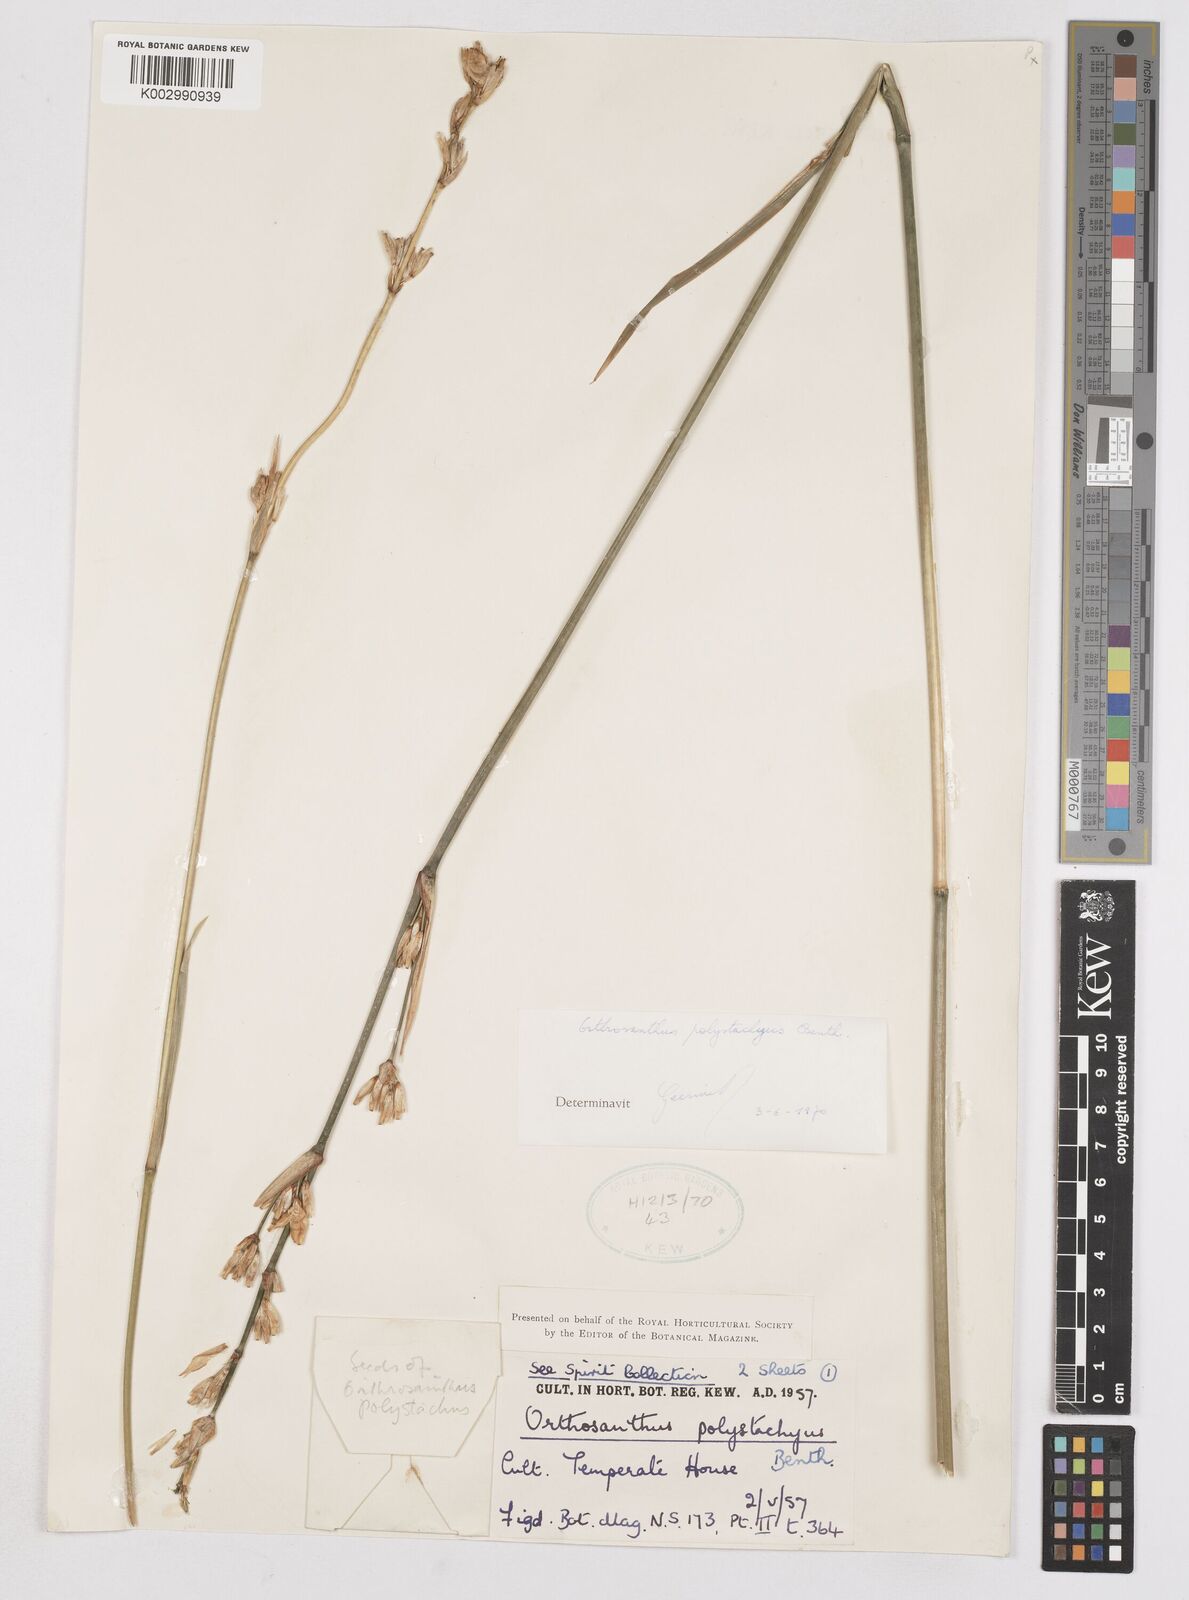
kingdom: Plantae
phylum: Tracheophyta
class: Liliopsida
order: Asparagales
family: Iridaceae
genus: Orthrosanthus
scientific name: Orthrosanthus polystachyus
